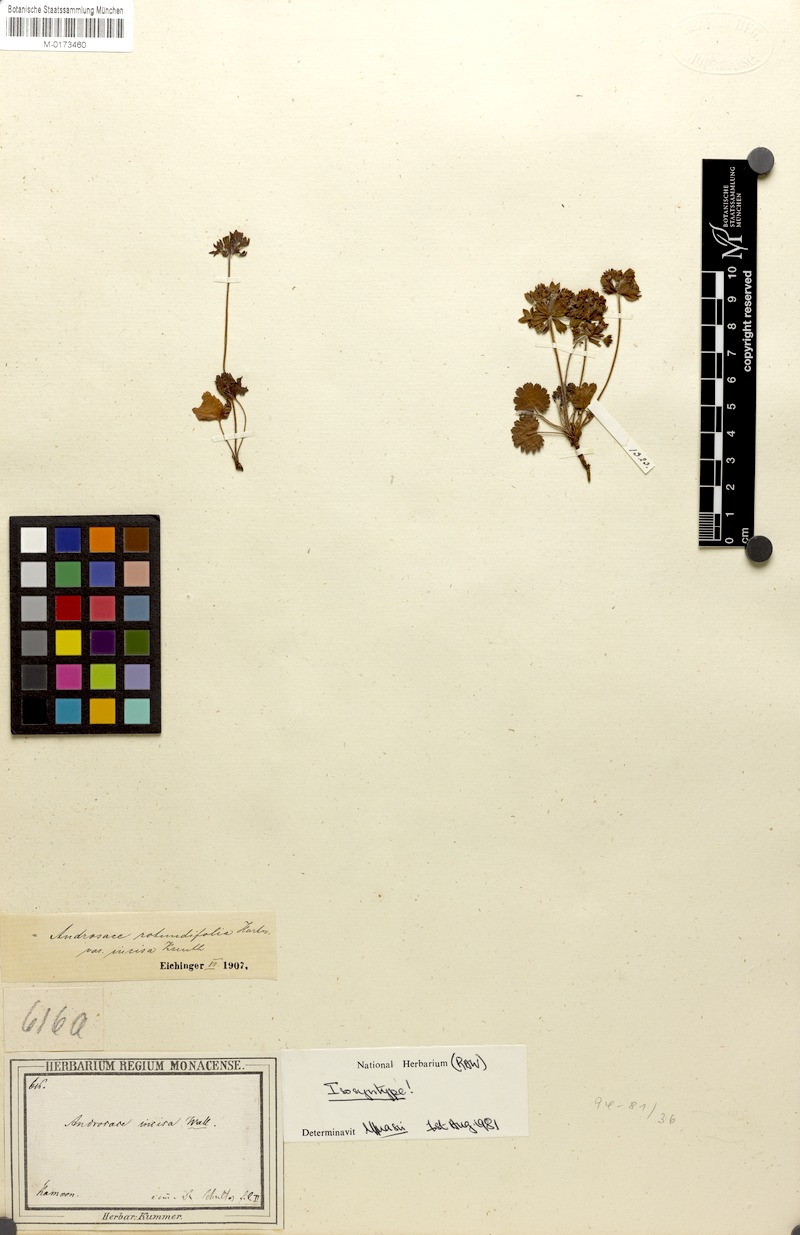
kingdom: Plantae
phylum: Tracheophyta
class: Magnoliopsida
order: Ericales
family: Primulaceae
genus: Androsace
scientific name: Androsace rotundifolia
